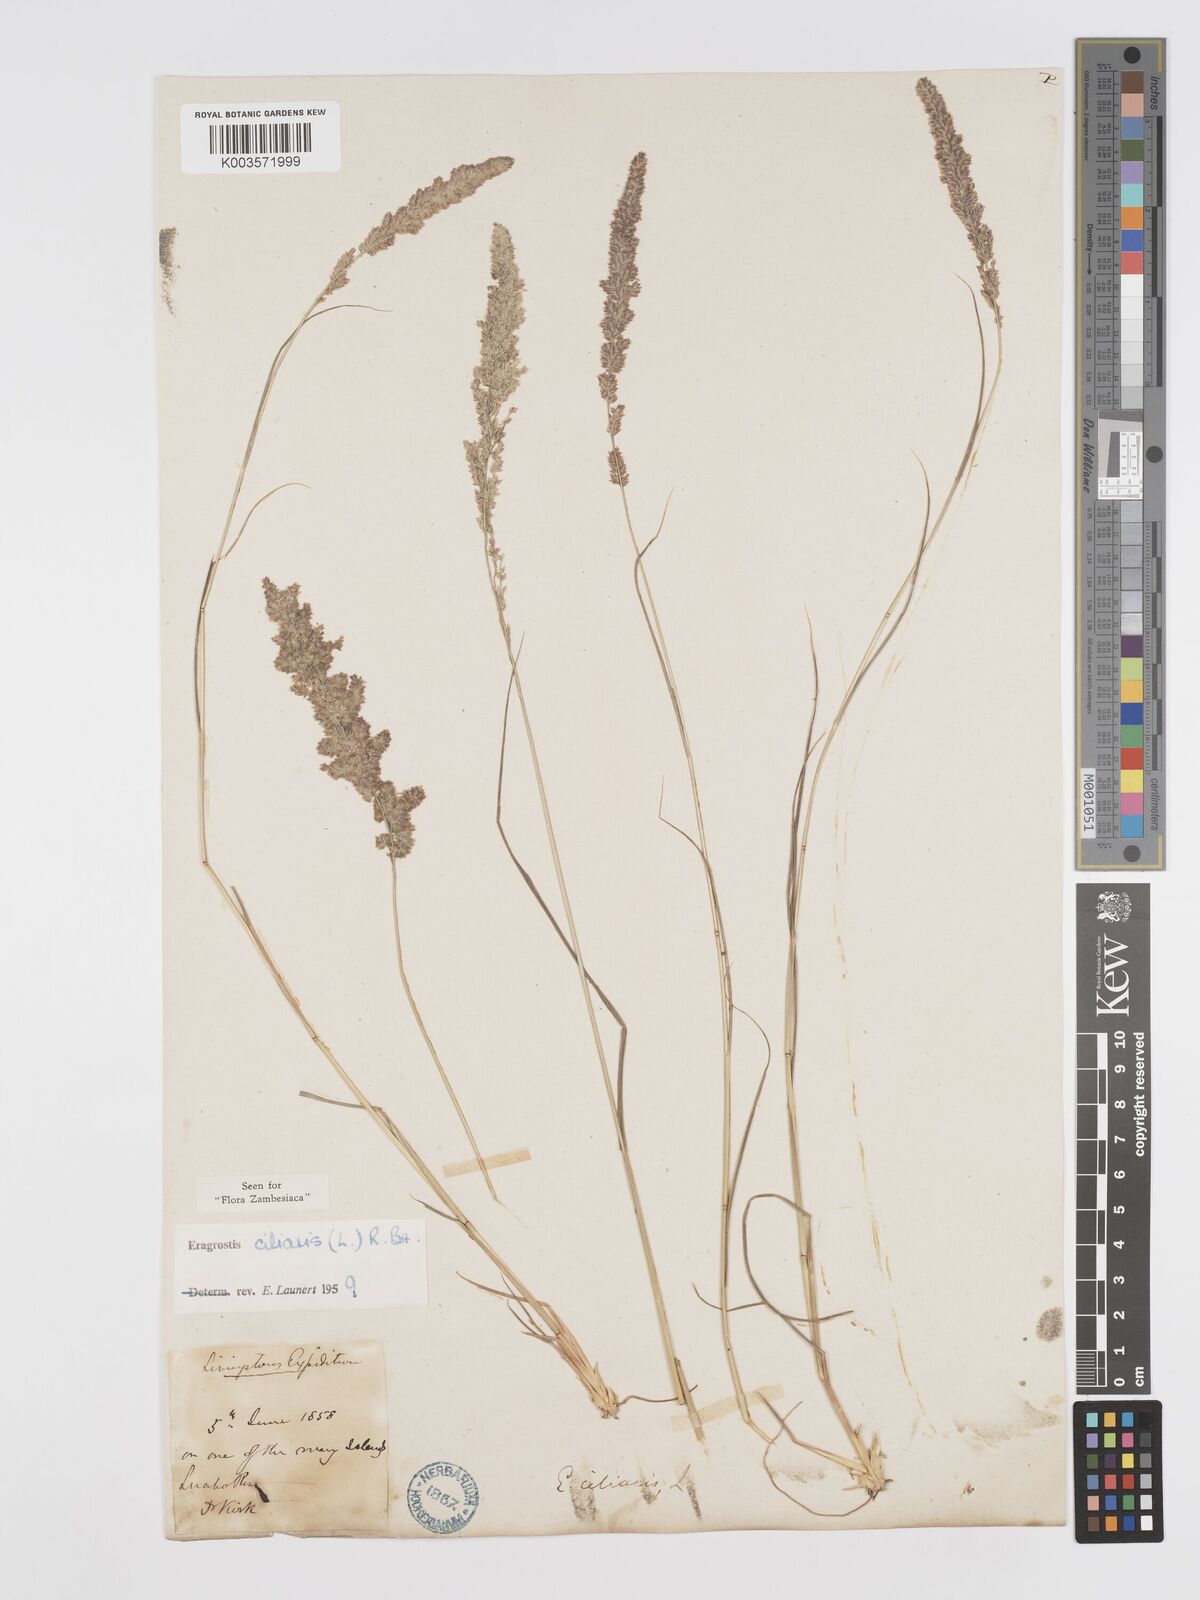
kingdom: Plantae
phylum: Tracheophyta
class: Liliopsida
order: Poales
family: Poaceae
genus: Eragrostis
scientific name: Eragrostis ciliaris
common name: Gophertail lovegrass
